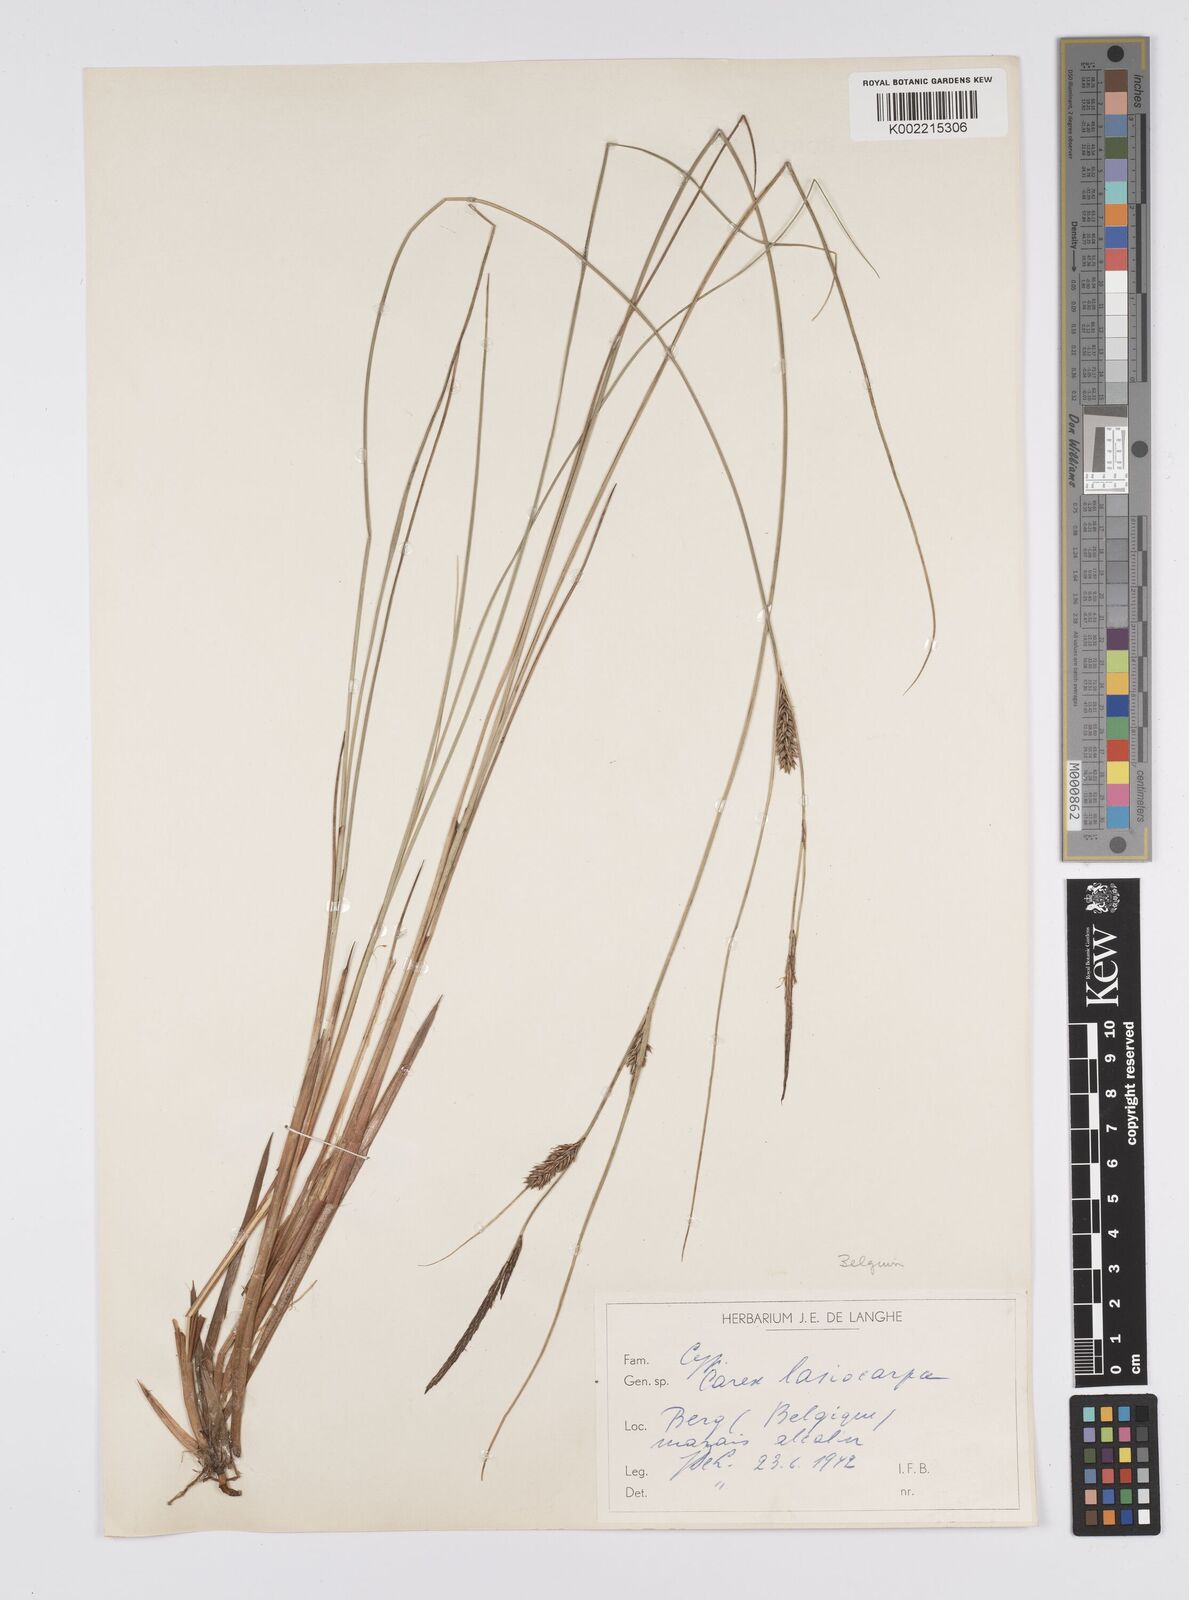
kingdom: Plantae
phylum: Tracheophyta
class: Liliopsida
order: Poales
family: Cyperaceae
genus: Carex
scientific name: Carex lasiocarpa
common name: Slender sedge
